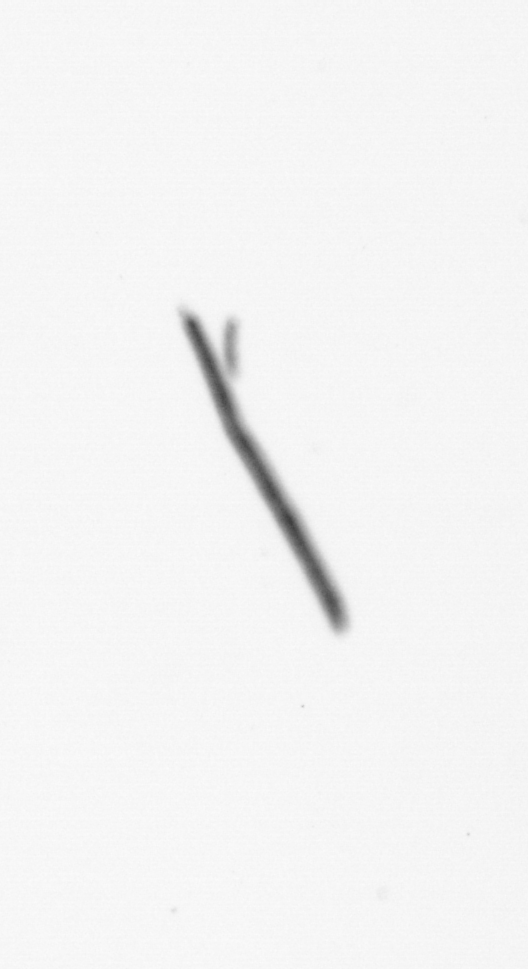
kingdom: Chromista
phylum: Ochrophyta
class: Bacillariophyceae
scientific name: Bacillariophyceae
